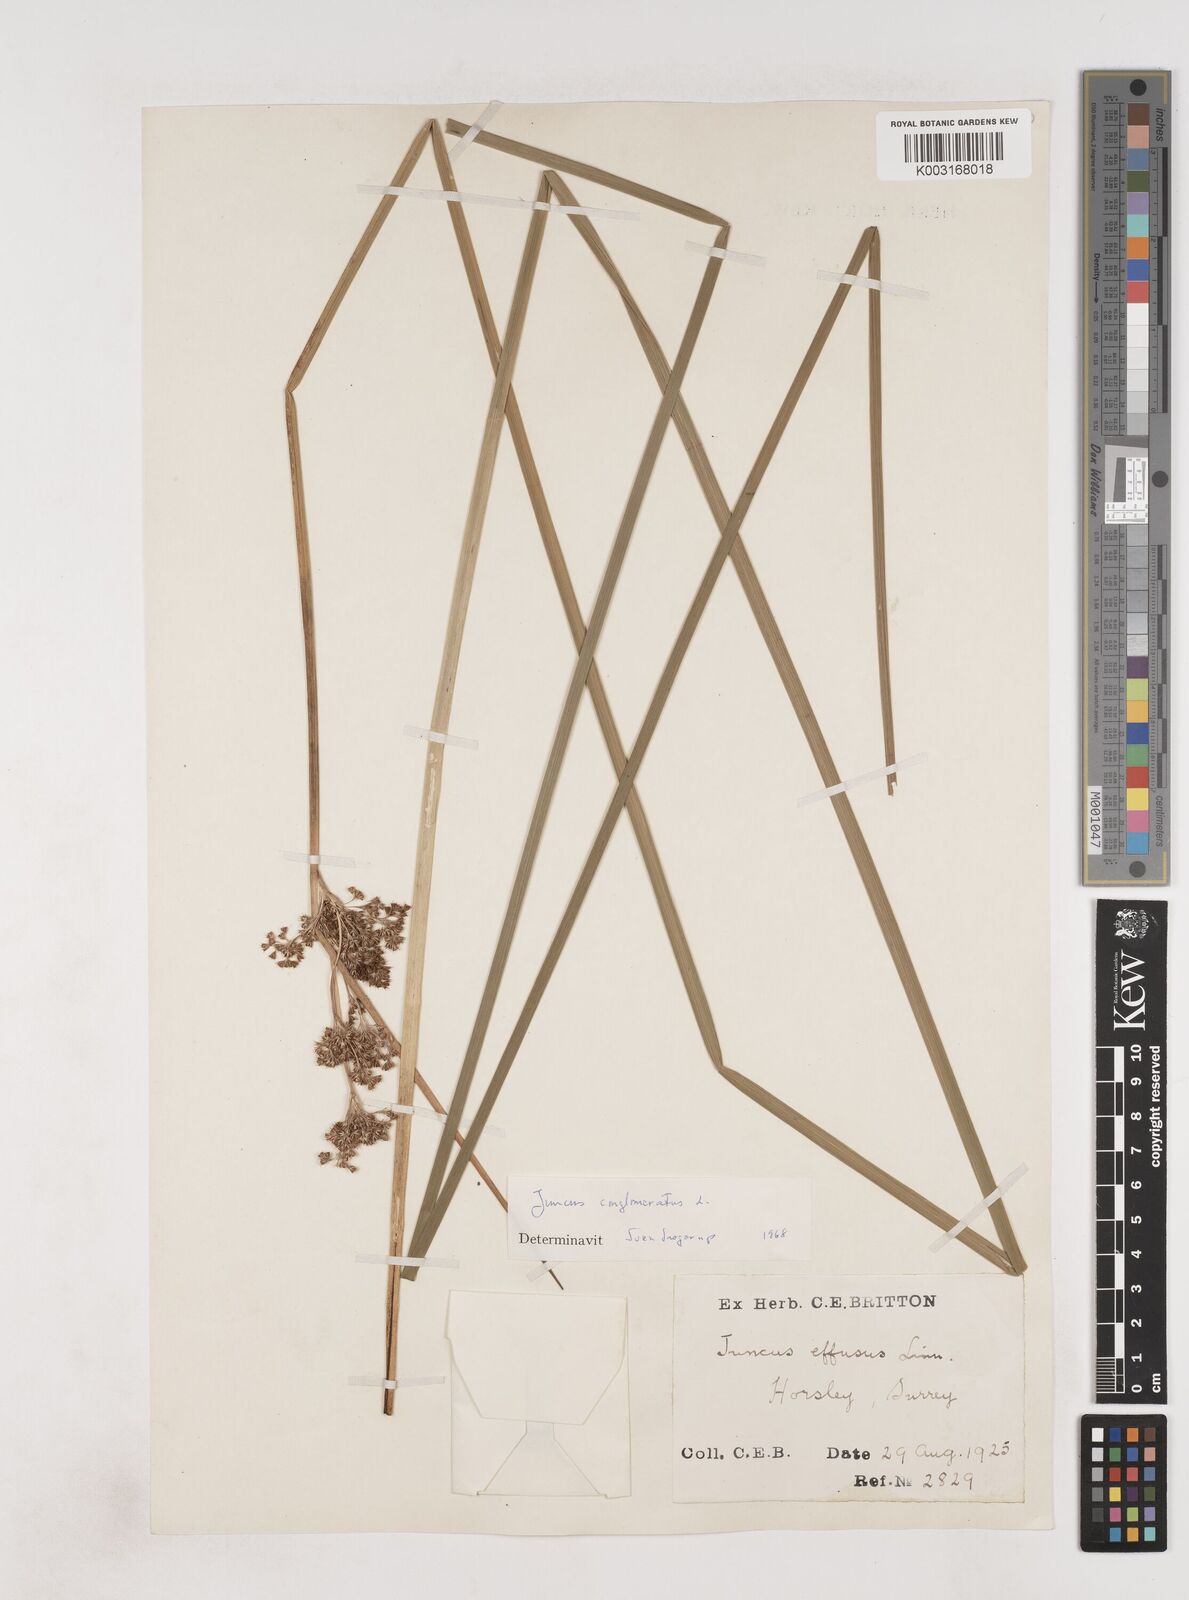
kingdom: Plantae
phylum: Tracheophyta
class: Liliopsida
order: Poales
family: Juncaceae
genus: Juncus
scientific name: Juncus conglomeratus
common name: Compact rush
